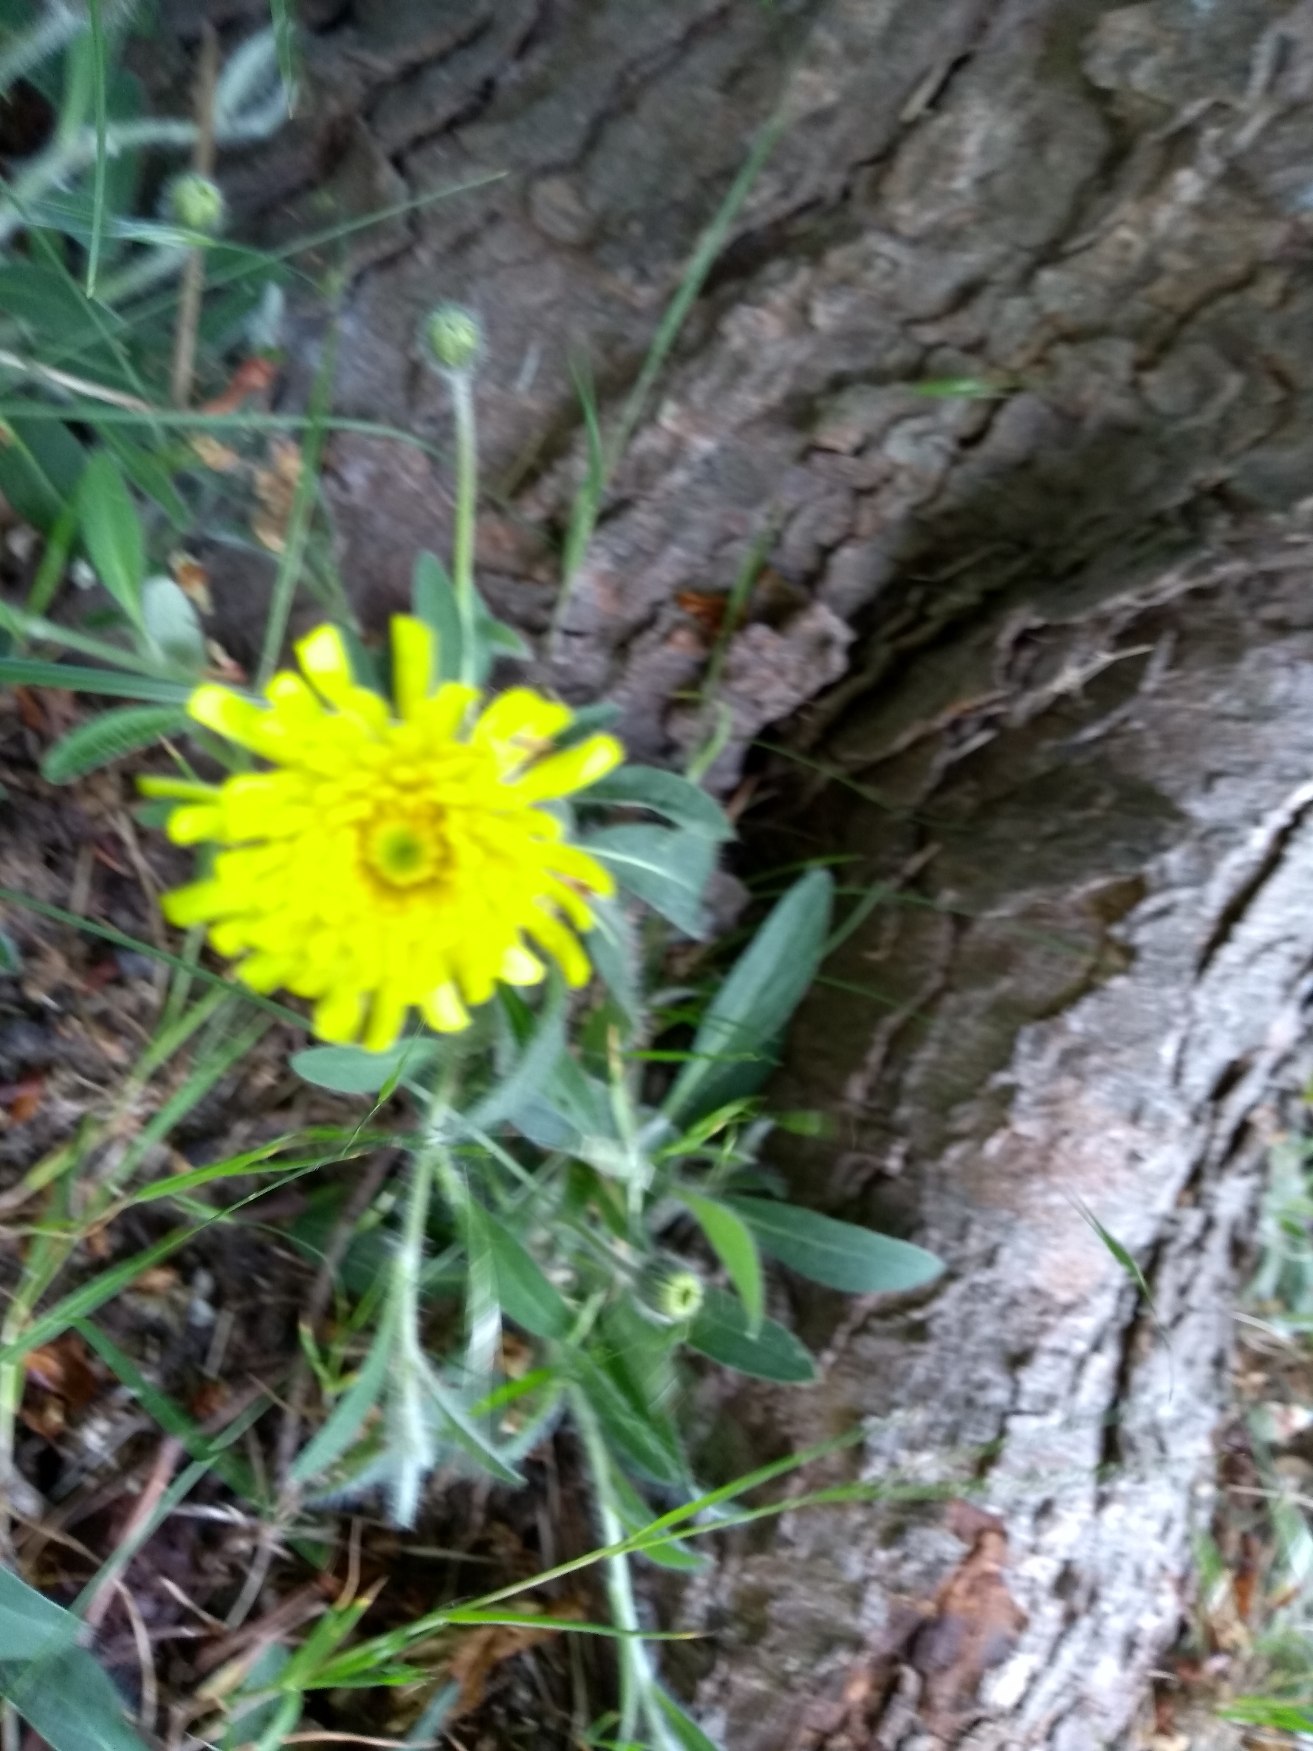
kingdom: Plantae
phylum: Tracheophyta
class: Magnoliopsida
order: Asterales
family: Asteraceae
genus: Pilosella
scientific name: Pilosella officinarum
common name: Håret høgeurt
